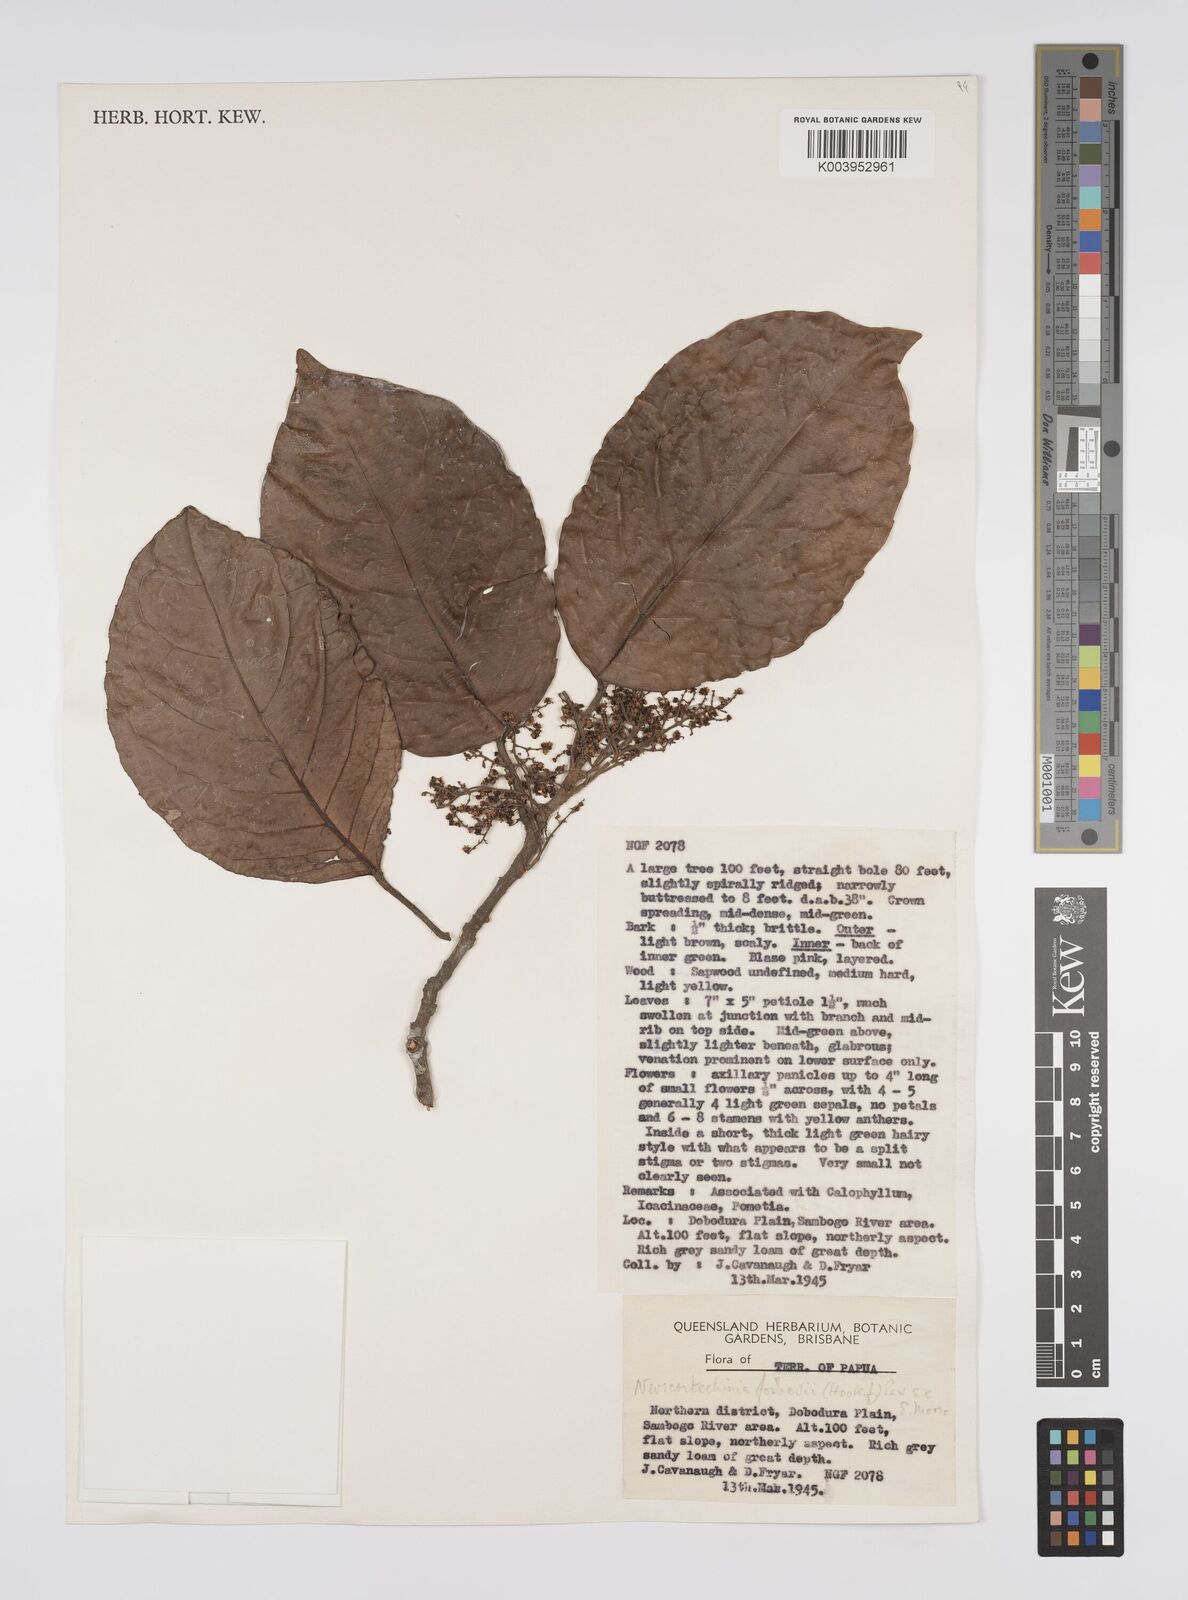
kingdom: Plantae
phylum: Tracheophyta
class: Magnoliopsida
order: Malpighiales
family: Euphorbiaceae
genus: Neoscortechinia
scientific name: Neoscortechinia forbesii
